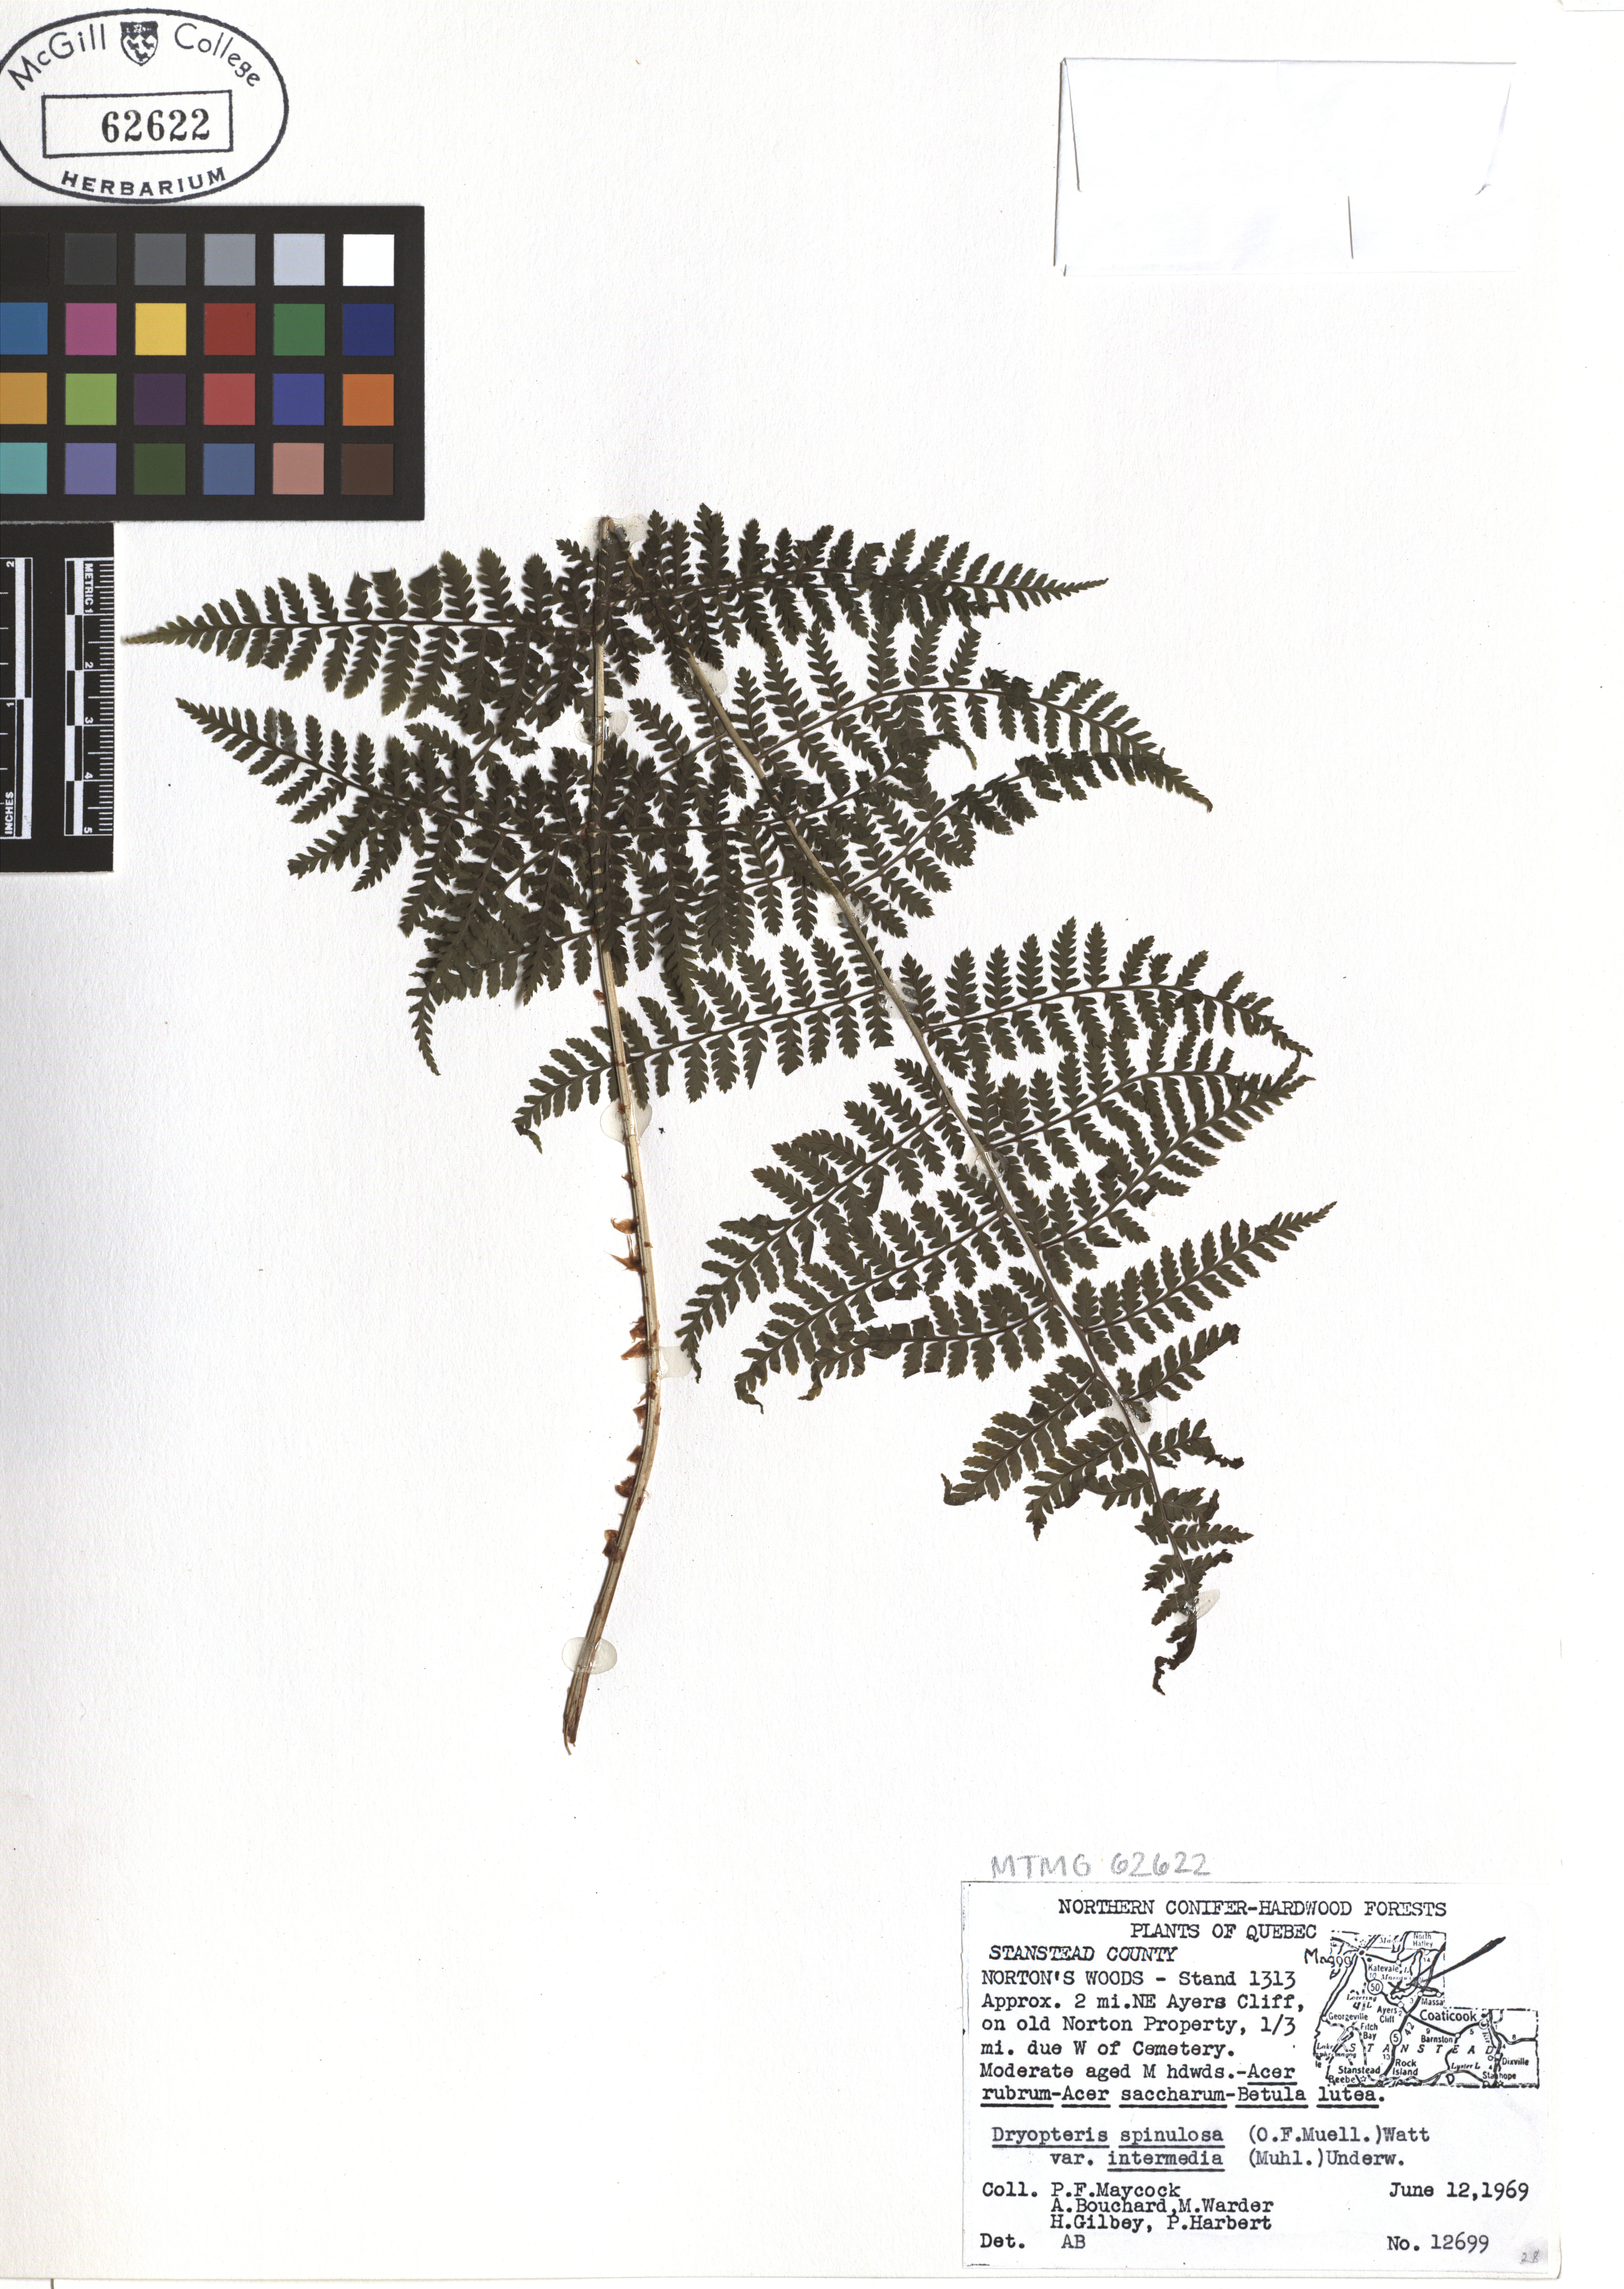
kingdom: Plantae
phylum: Tracheophyta
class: Polypodiopsida
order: Polypodiales
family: Dryopteridaceae
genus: Dryopteris
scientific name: Dryopteris intermedia
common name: Evergreen wood fern
